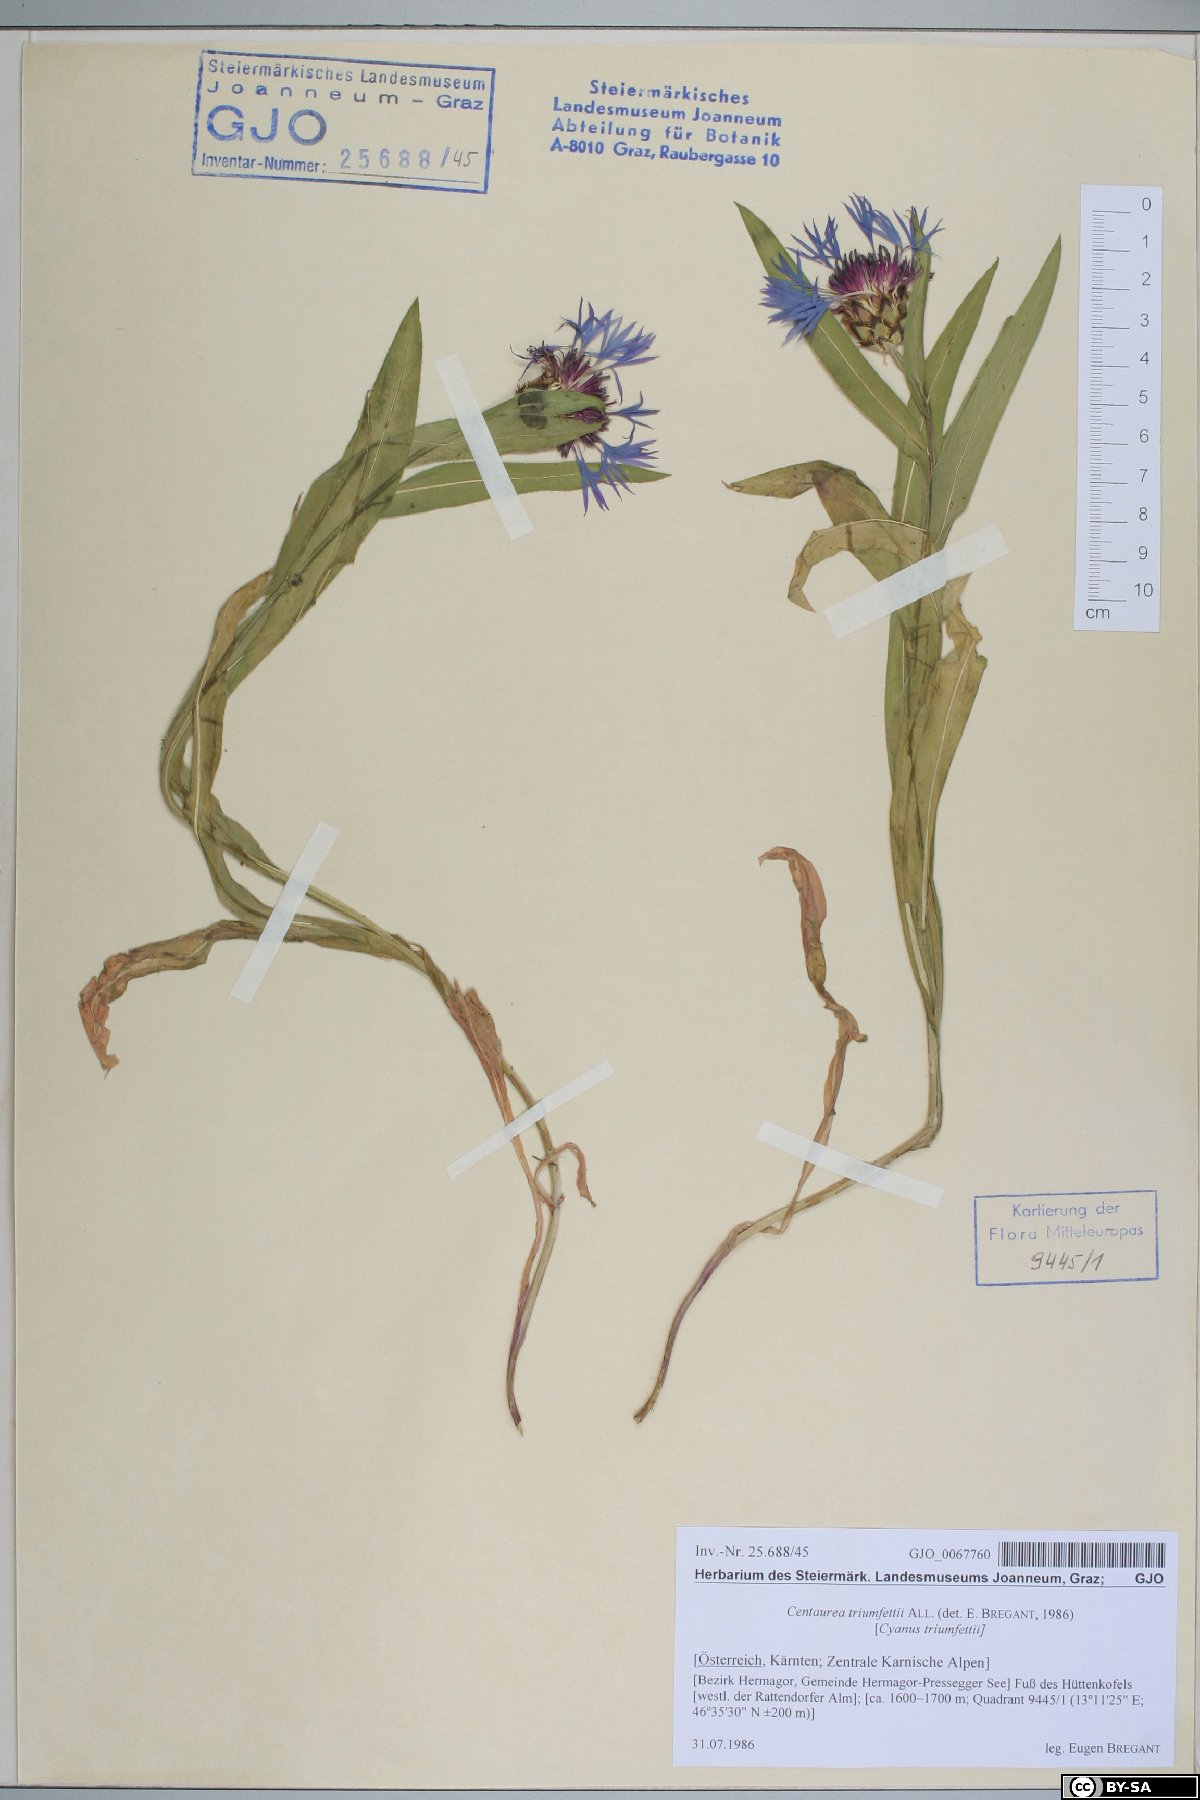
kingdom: Plantae
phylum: Tracheophyta
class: Magnoliopsida
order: Asterales
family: Asteraceae
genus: Centaurea
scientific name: Centaurea triumfettii
